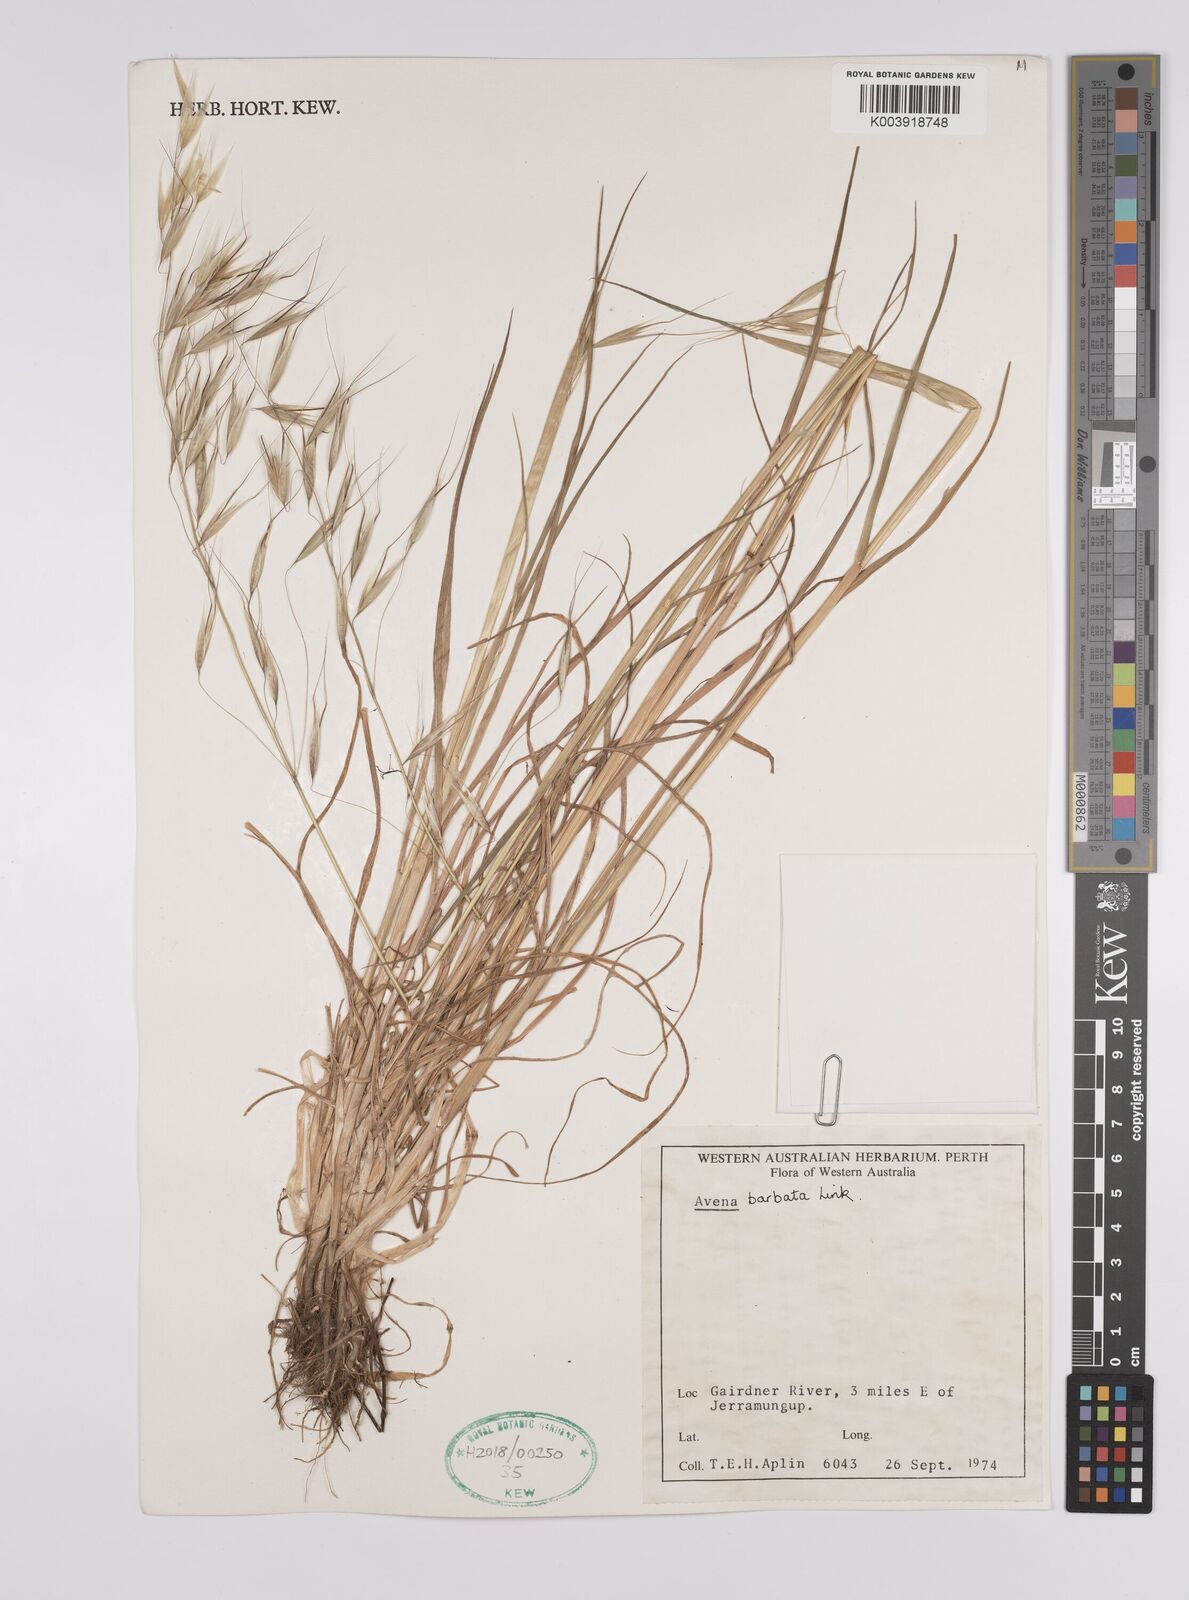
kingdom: Plantae
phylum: Tracheophyta
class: Liliopsida
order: Poales
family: Poaceae
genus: Avena
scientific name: Avena
